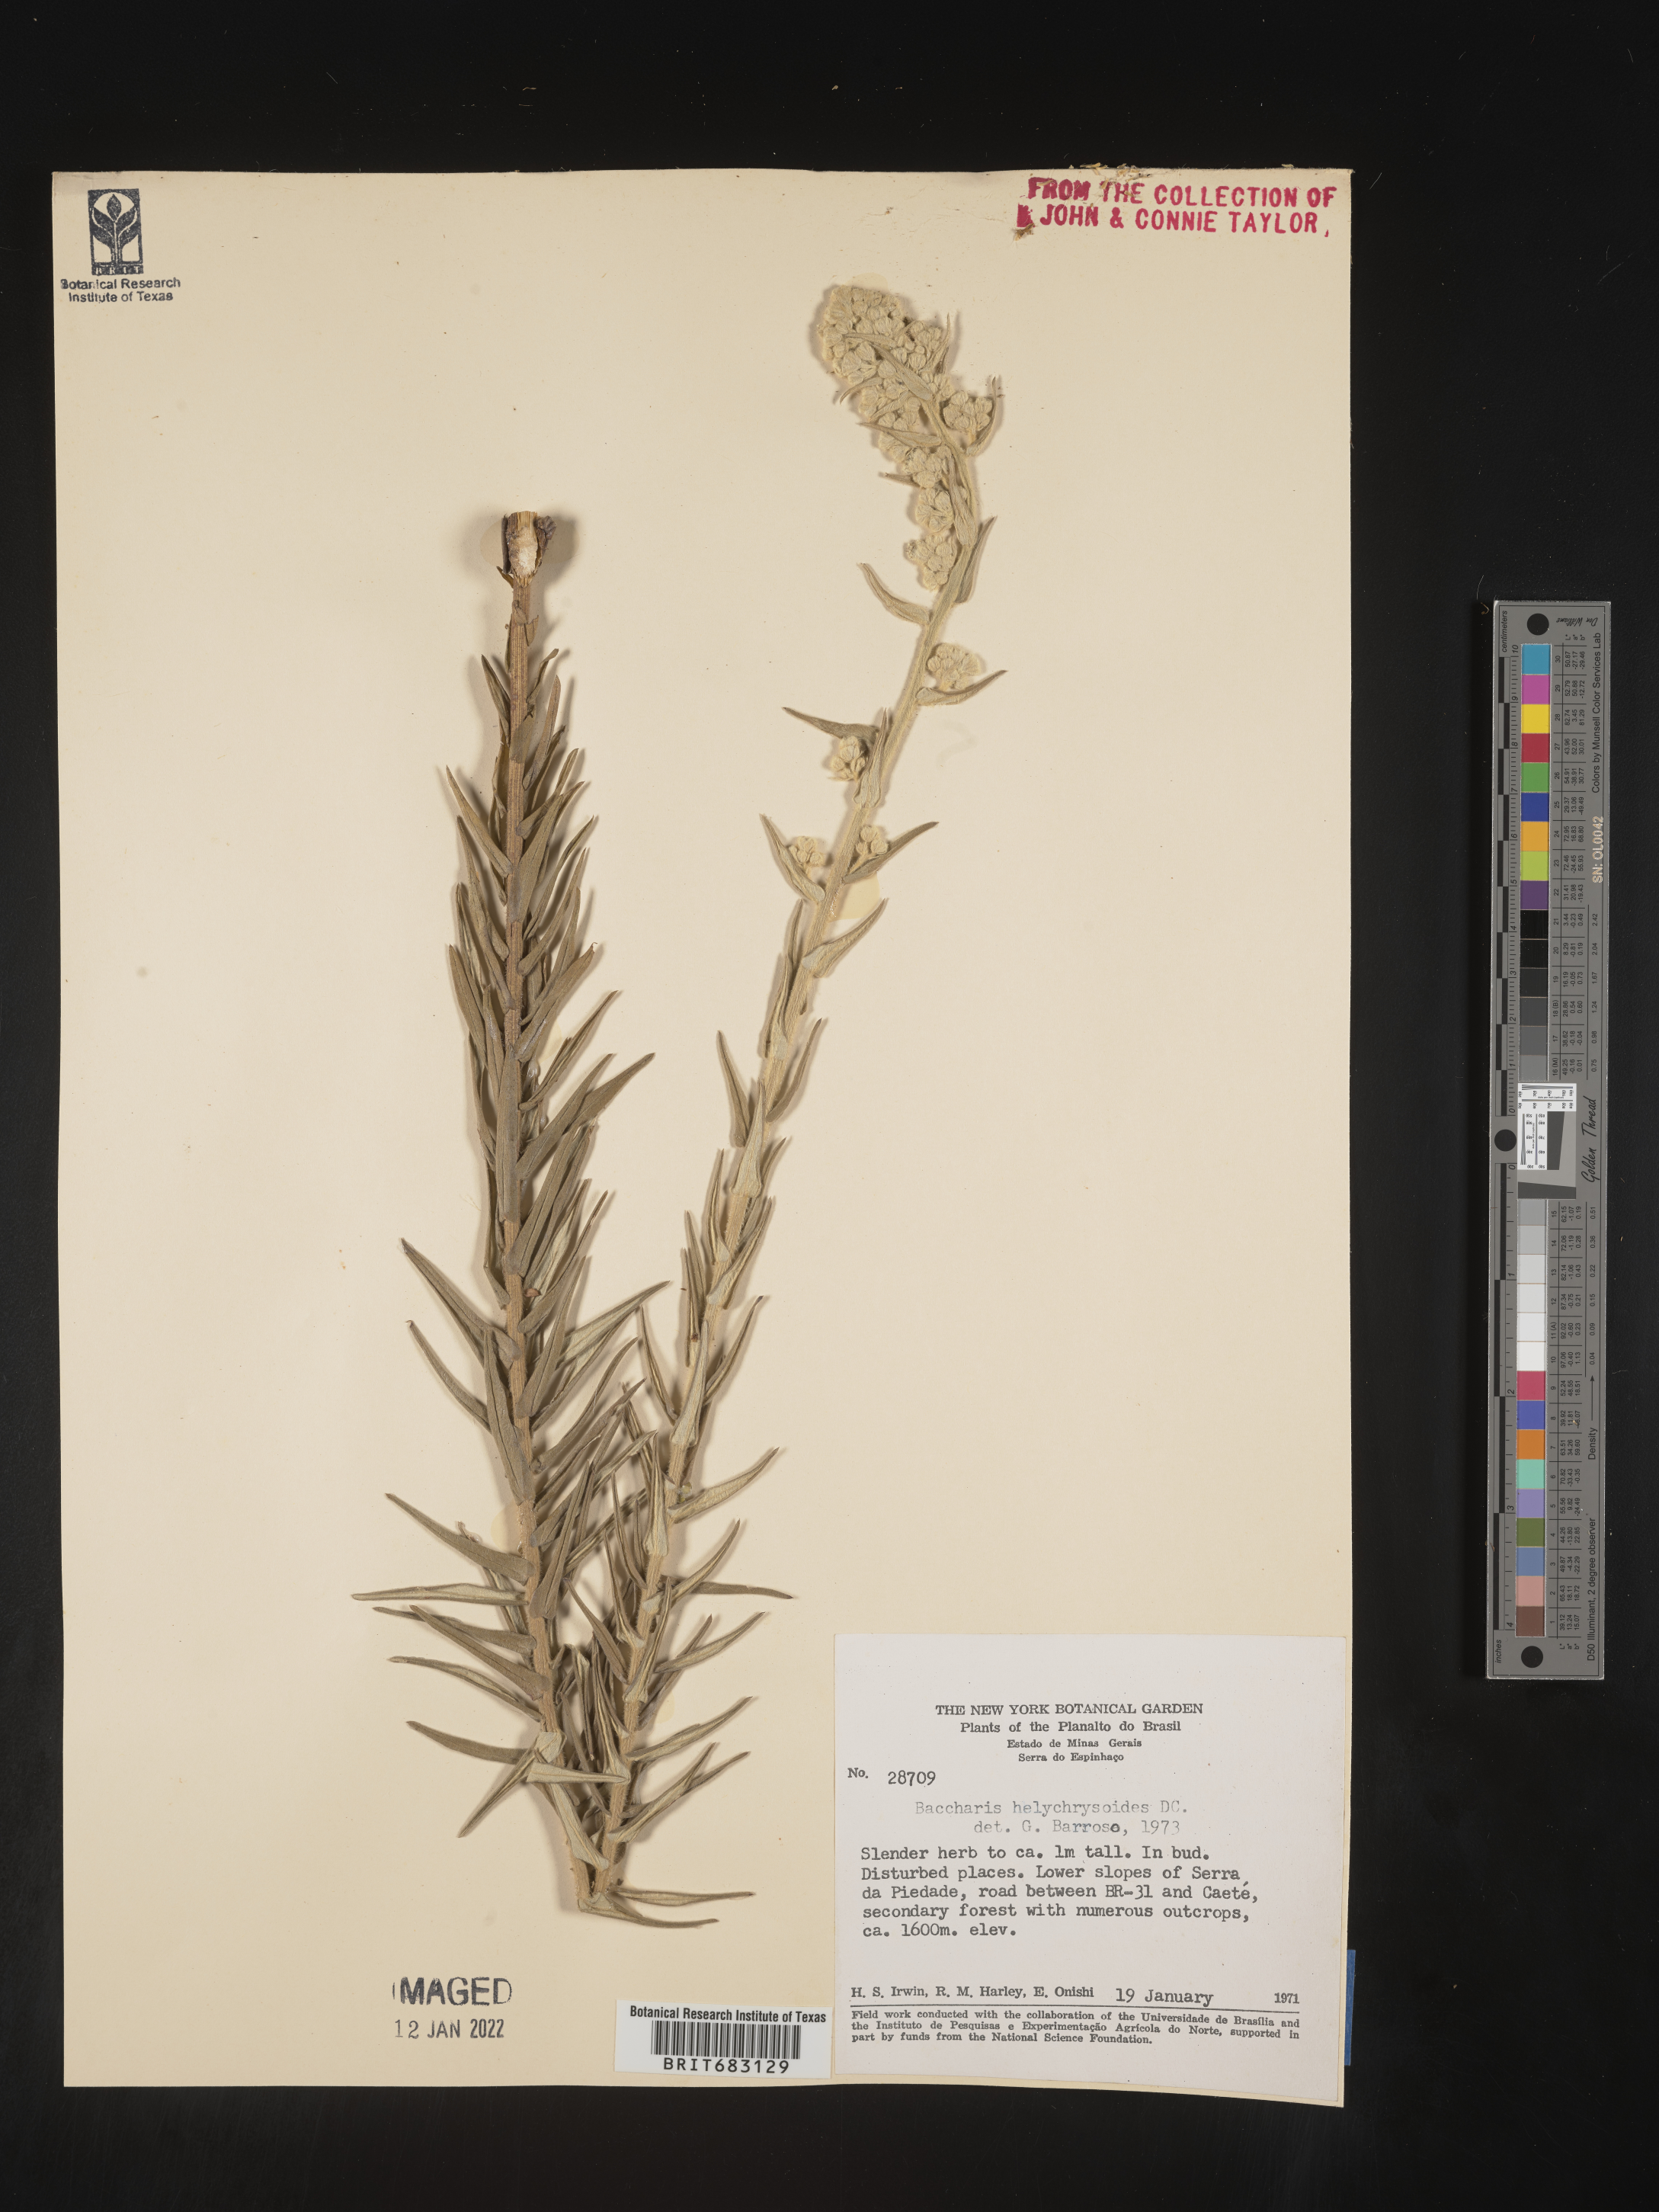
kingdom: Plantae
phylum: Tracheophyta
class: Magnoliopsida
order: Asterales
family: Asteraceae
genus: Baccharis
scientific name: Baccharis
